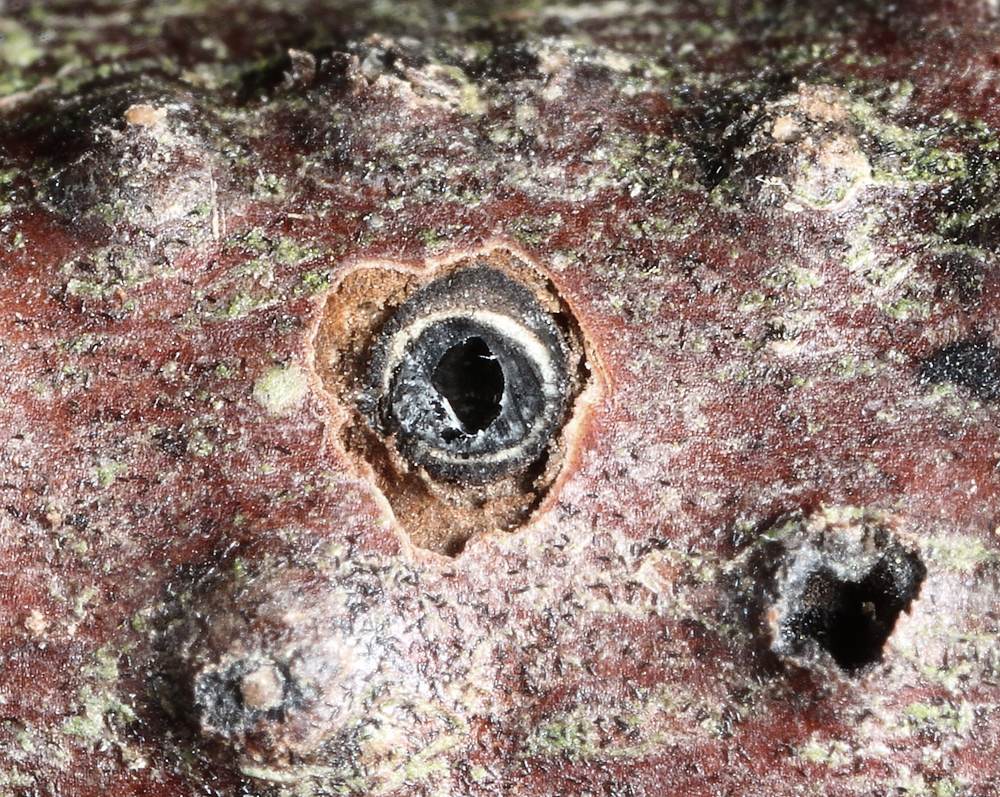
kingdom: Fungi
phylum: Ascomycota
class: Dothideomycetes
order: Pleosporales
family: Massariaceae
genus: Massaria
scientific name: Massaria inquinans
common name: ahorn-kulvulkan
